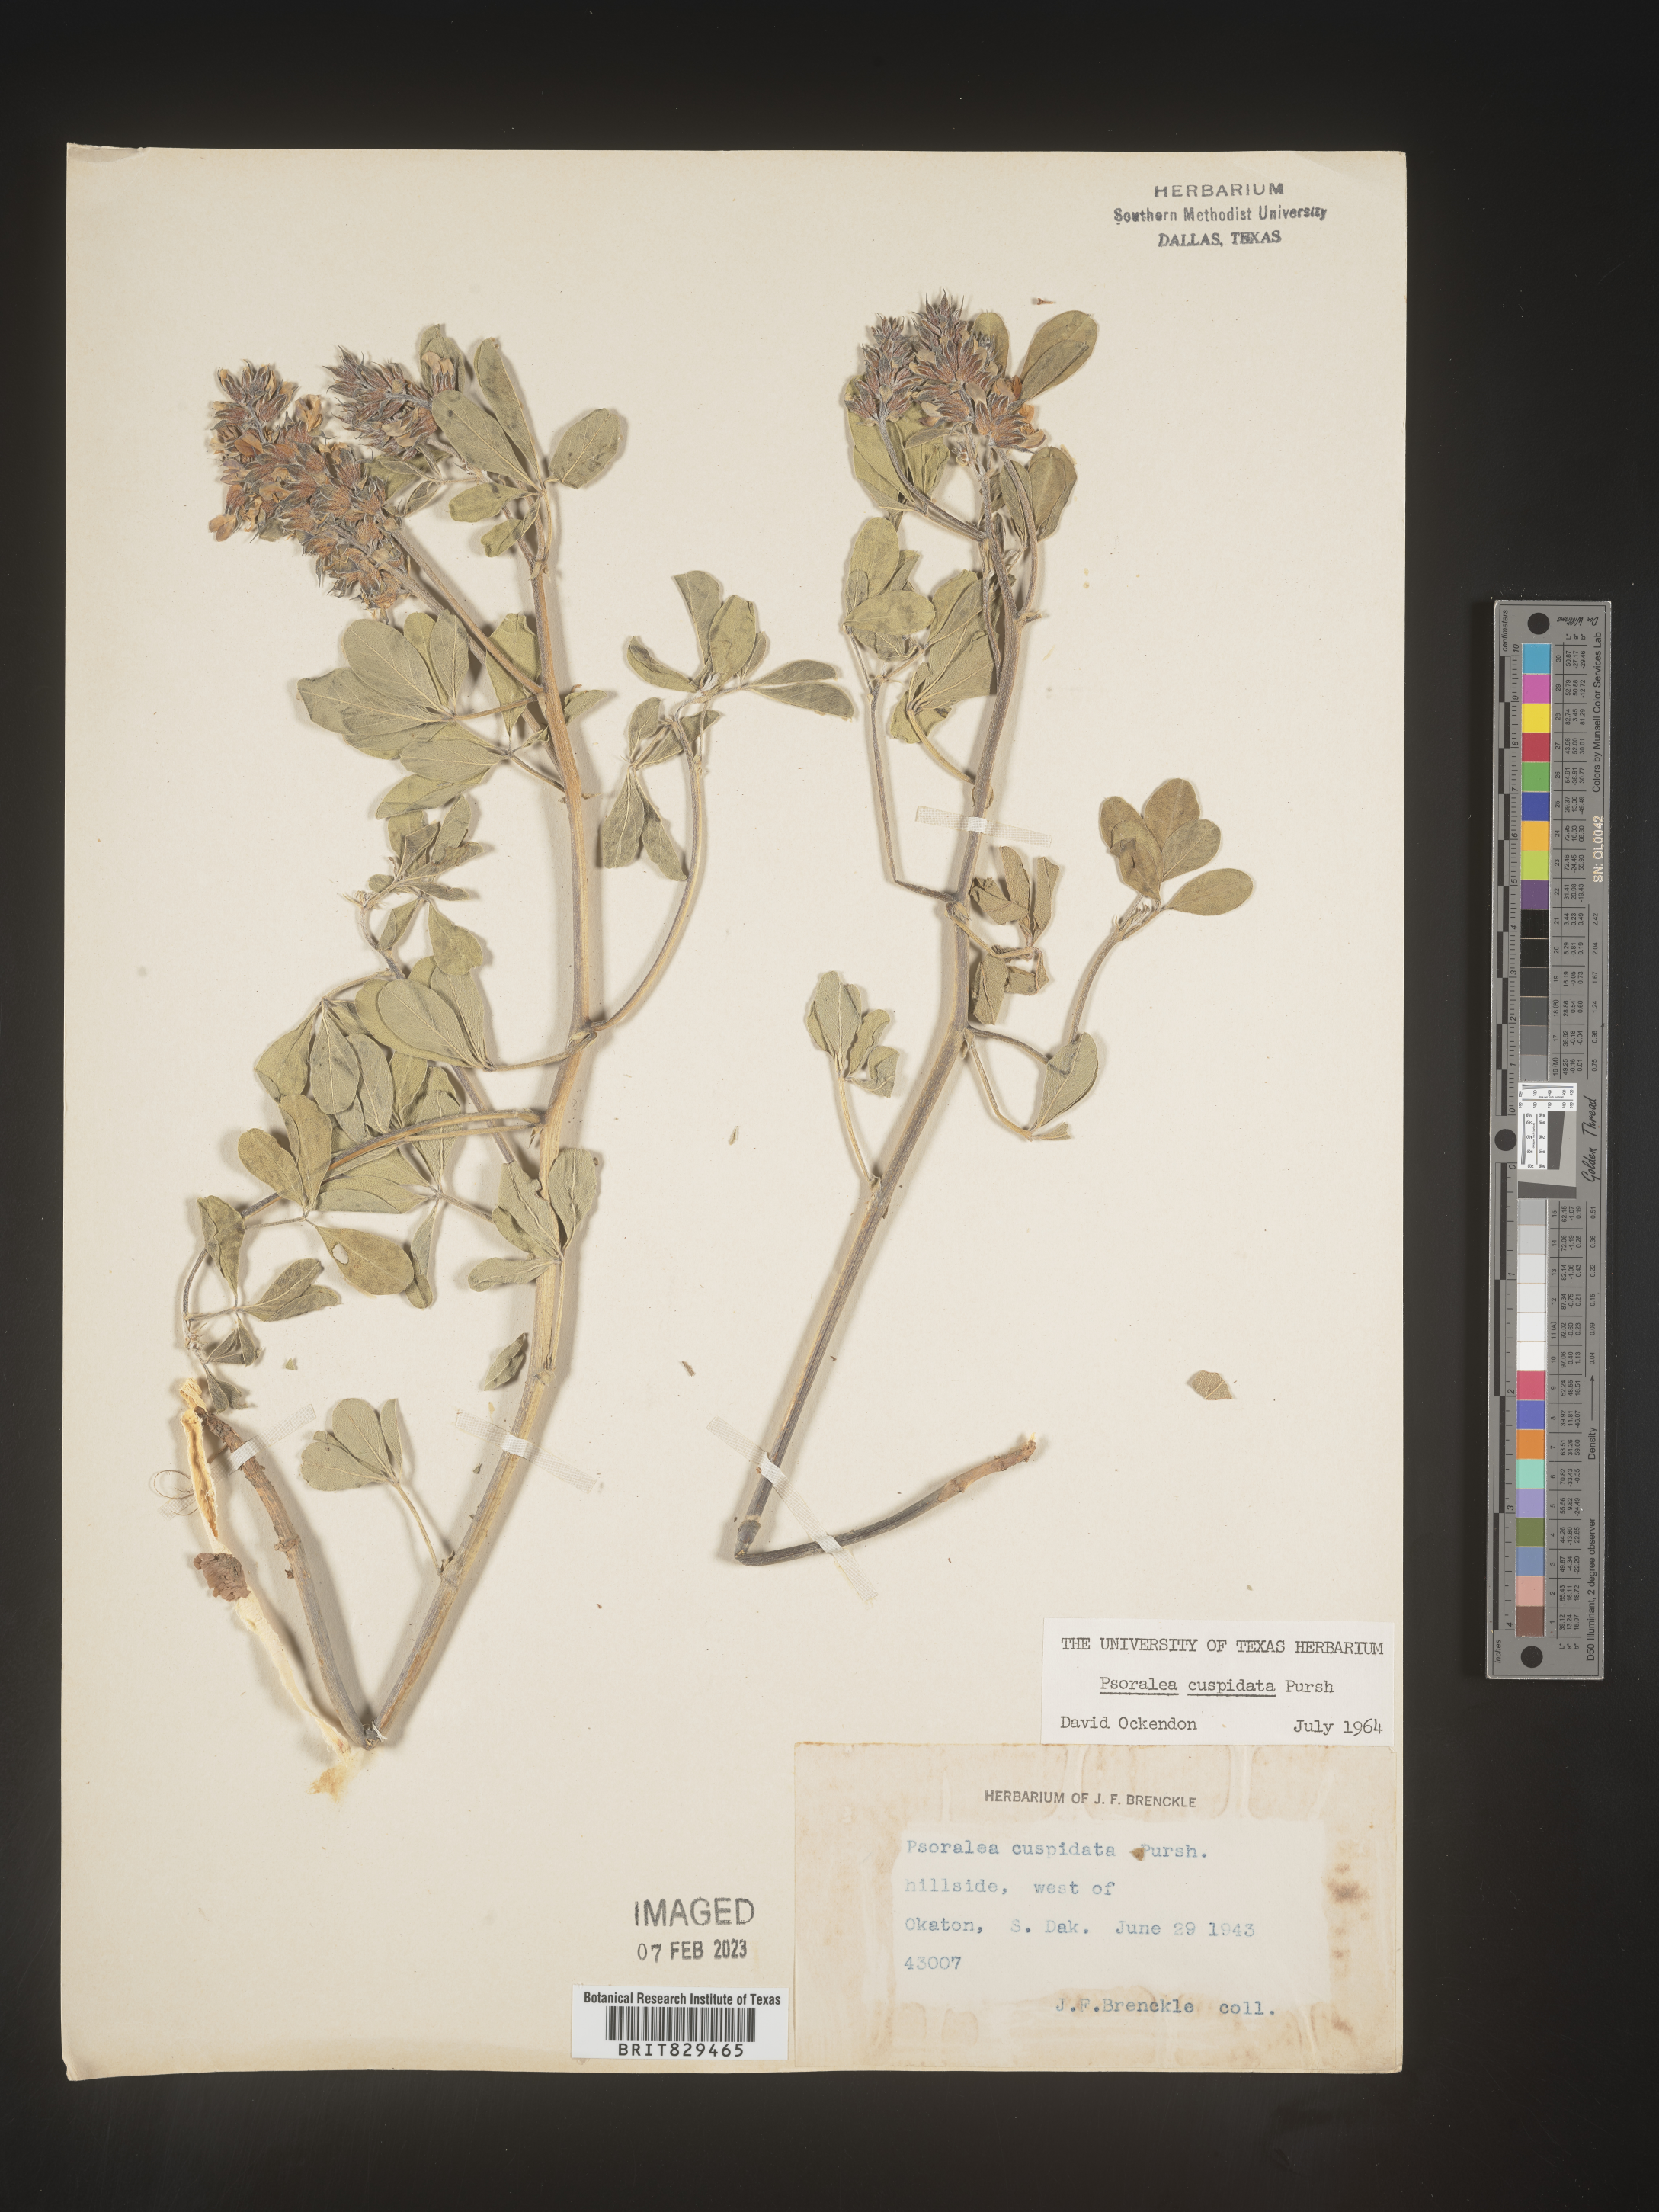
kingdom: Plantae
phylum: Tracheophyta
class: Magnoliopsida
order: Fabales
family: Fabaceae
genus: Psoralea
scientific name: Psoralea
